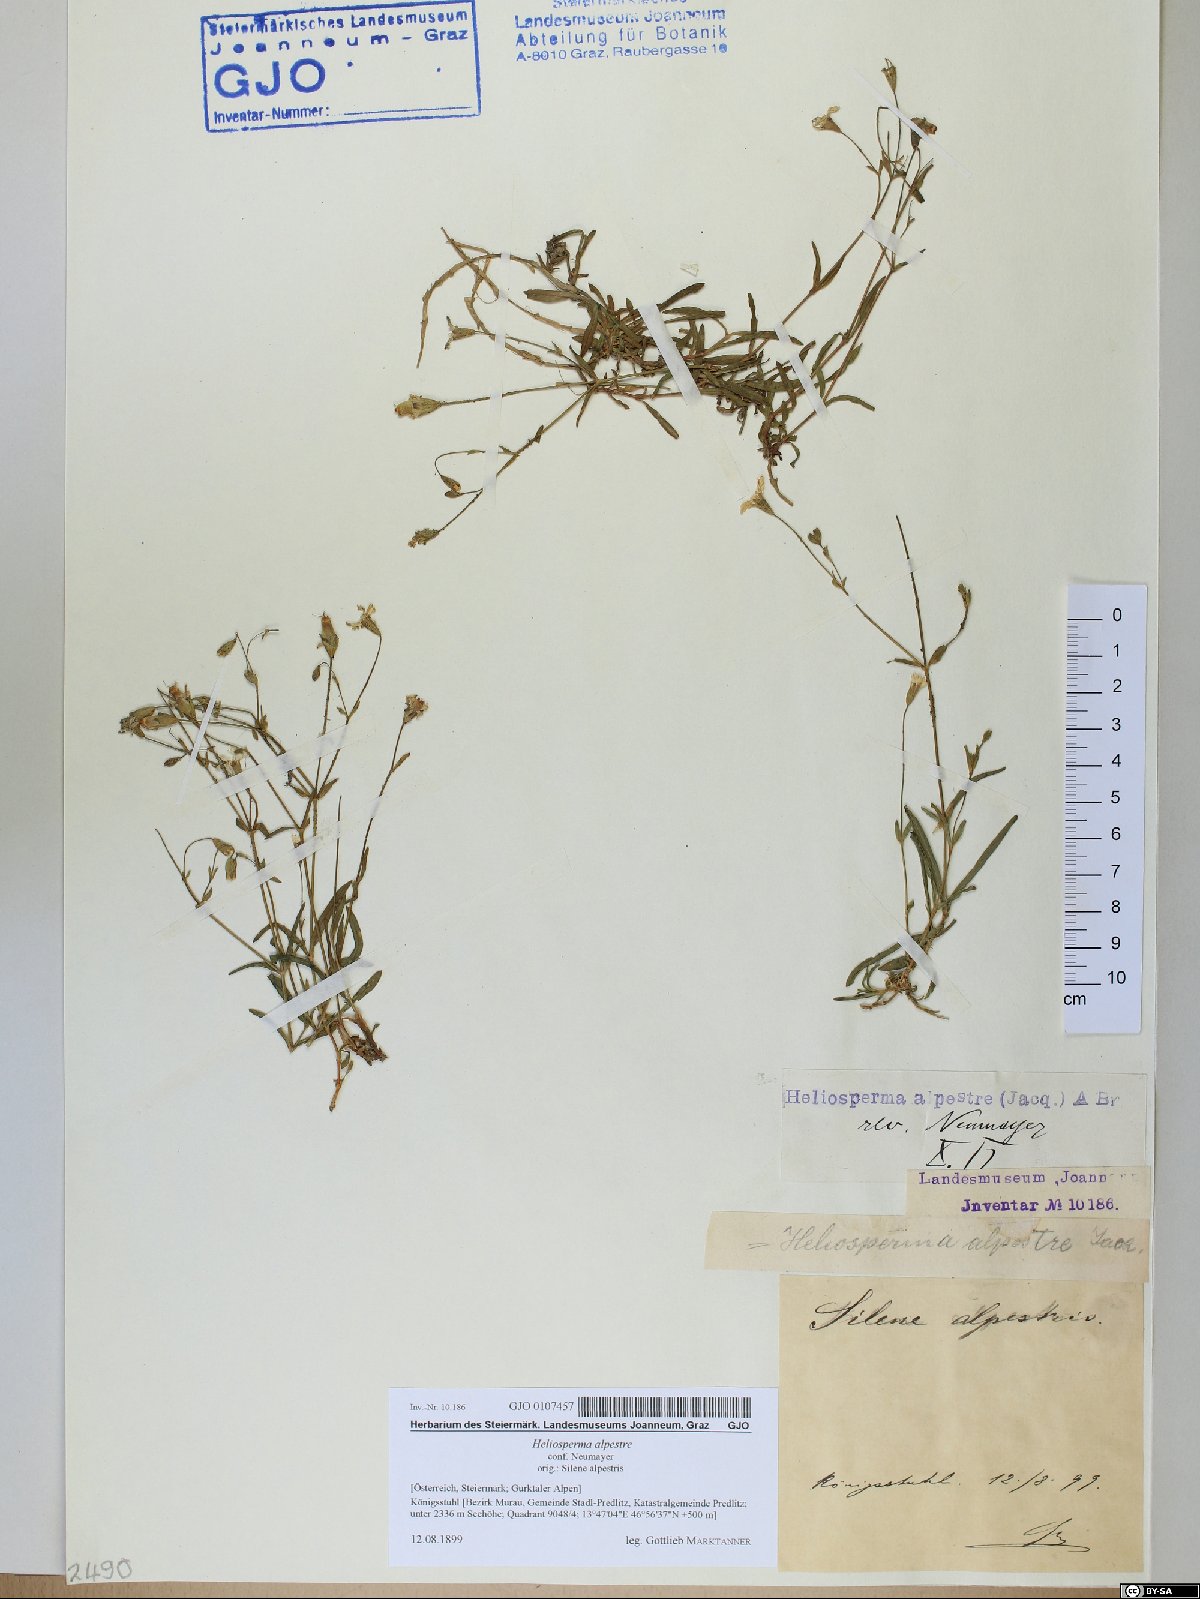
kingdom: Plantae
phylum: Tracheophyta
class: Magnoliopsida
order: Caryophyllales
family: Caryophyllaceae
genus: Heliosperma
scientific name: Heliosperma alpestre
